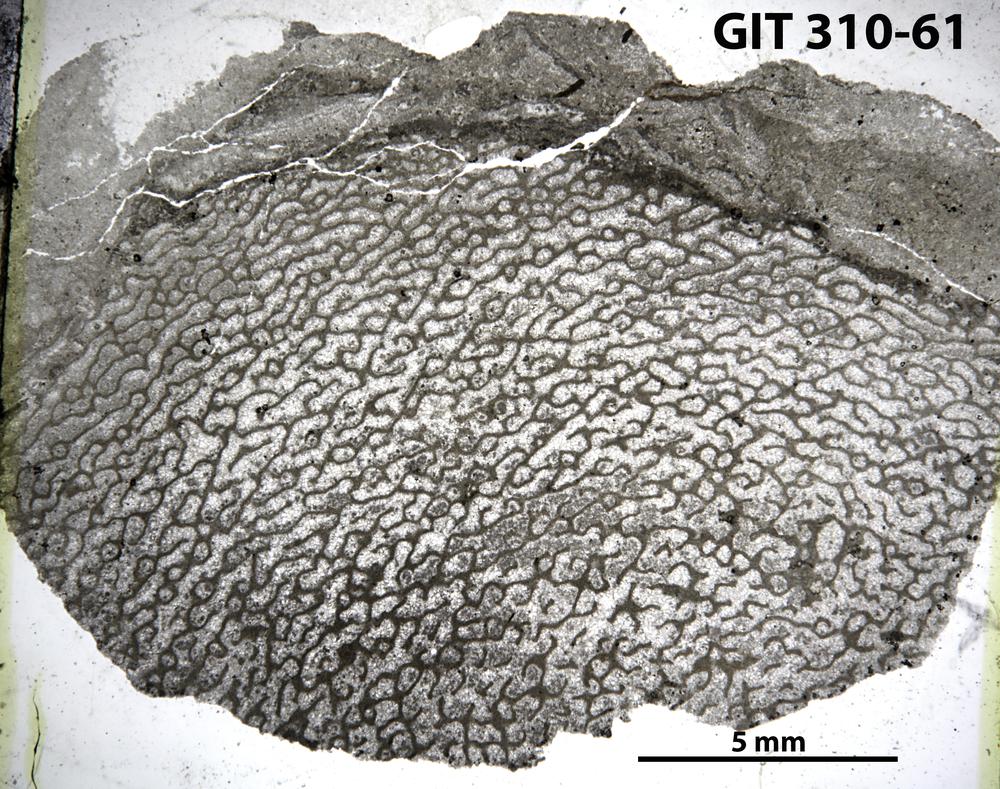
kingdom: Animalia
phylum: Porifera
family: Actinodictyidae
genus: Camptodictyon
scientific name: Camptodictyon
